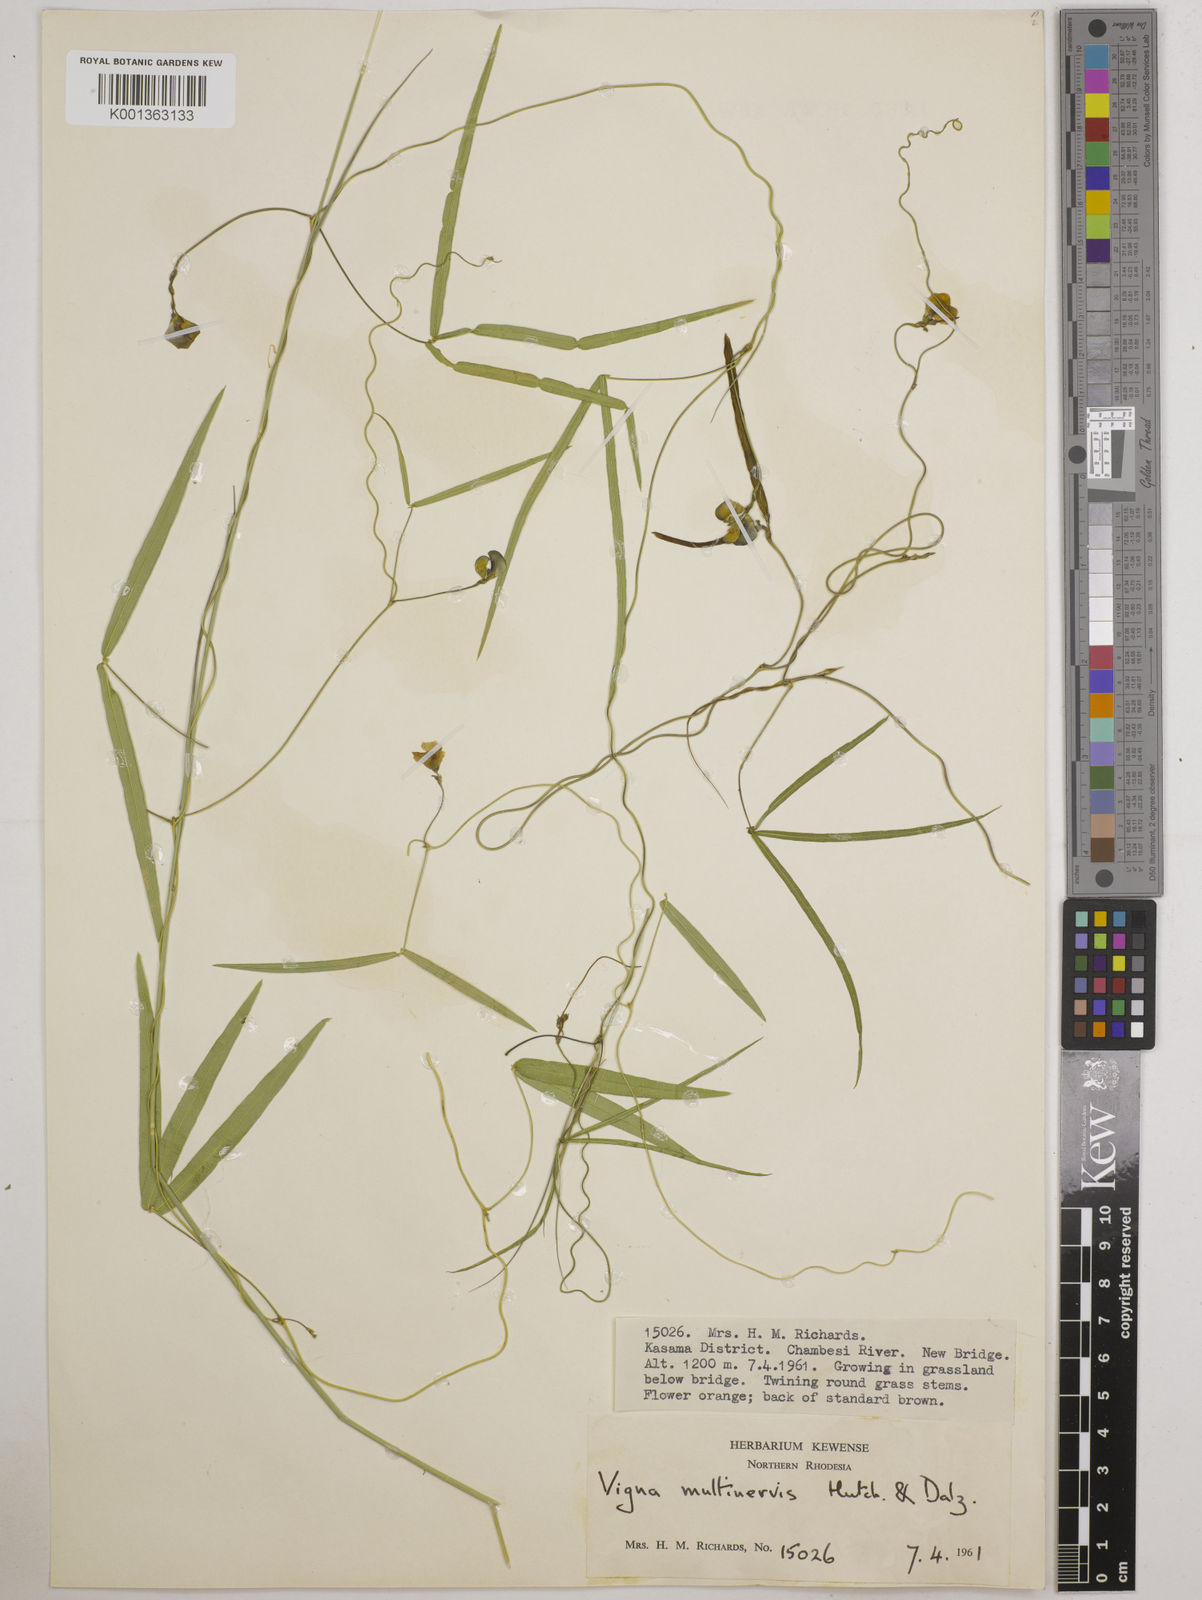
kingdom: Plantae
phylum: Tracheophyta
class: Magnoliopsida
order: Fabales
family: Fabaceae
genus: Vigna
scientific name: Vigna multinervis
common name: Fula-pulaar
